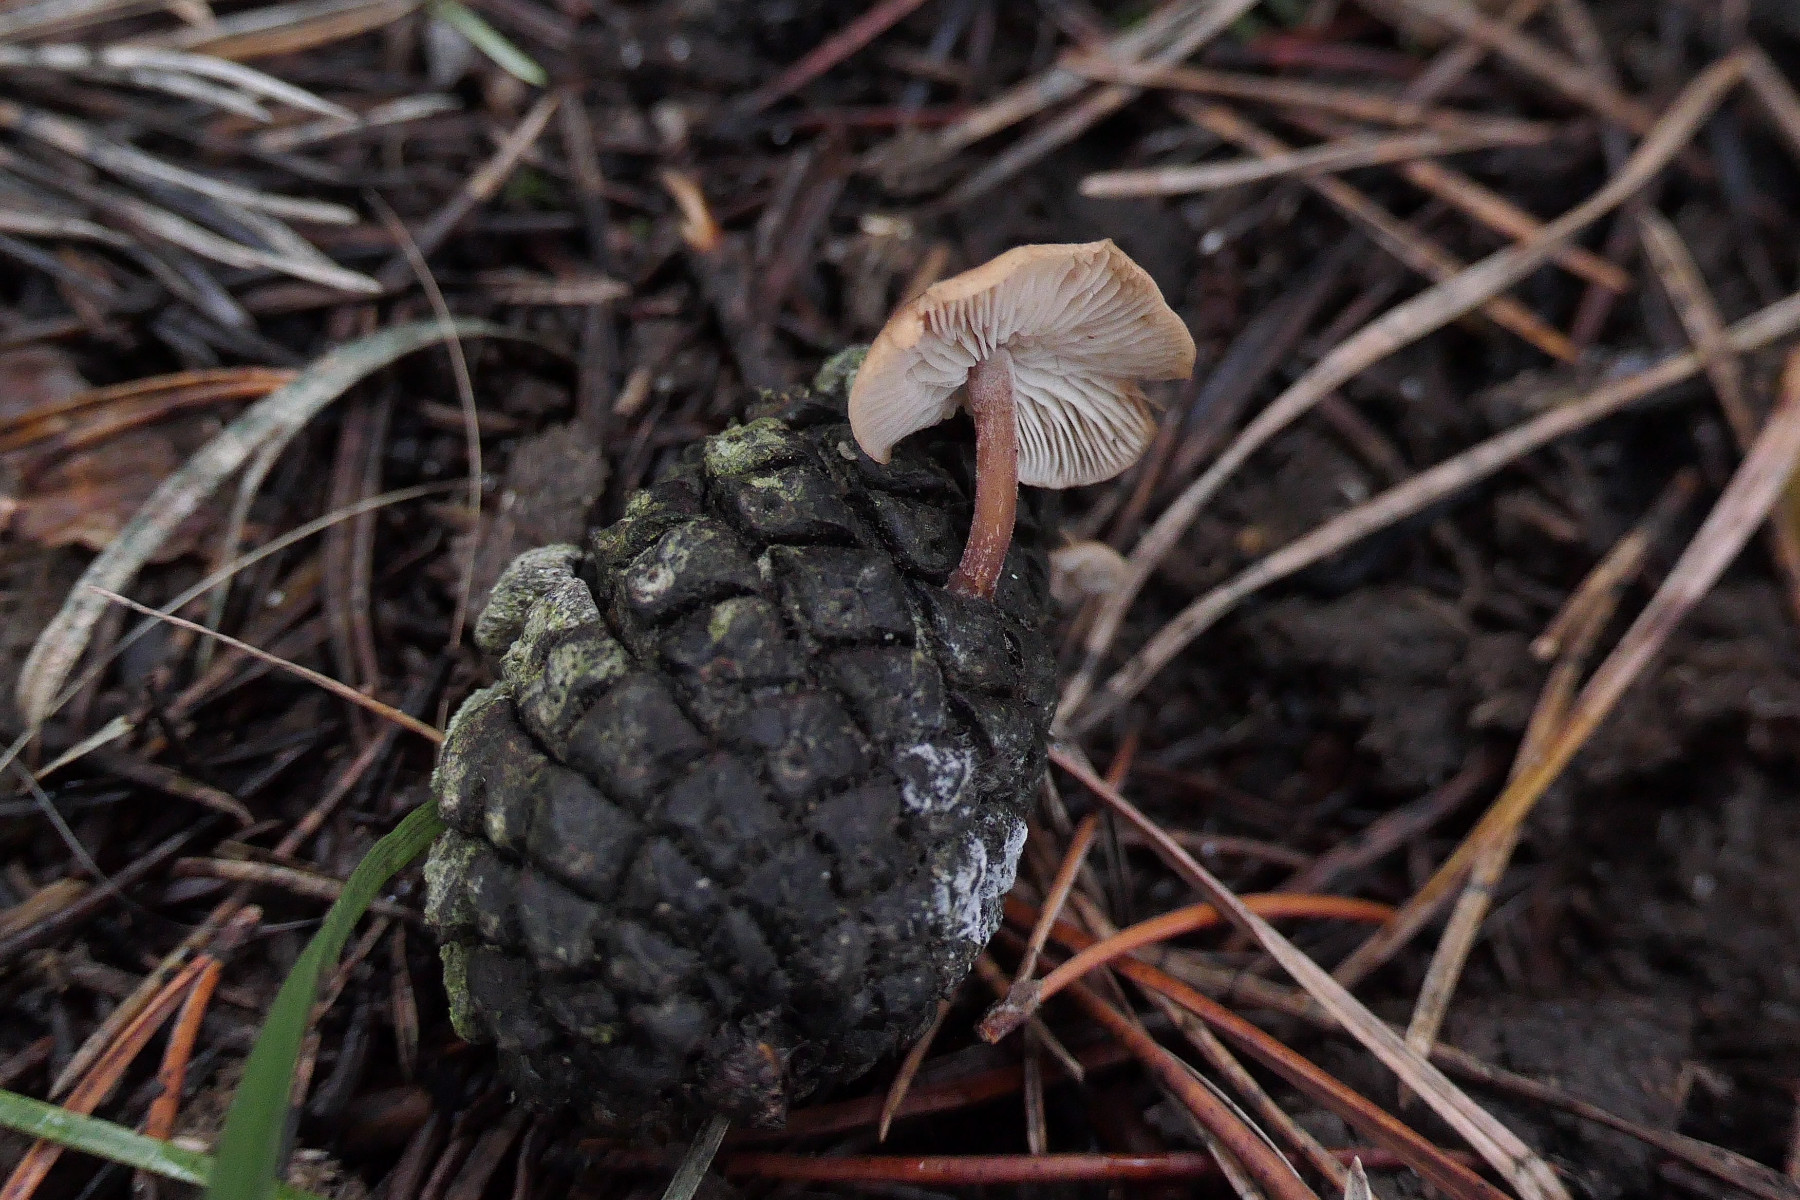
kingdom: Fungi
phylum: Basidiomycota
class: Agaricomycetes
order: Agaricales
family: Marasmiaceae
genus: Baeospora
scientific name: Baeospora myosura
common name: koglebruskhat
